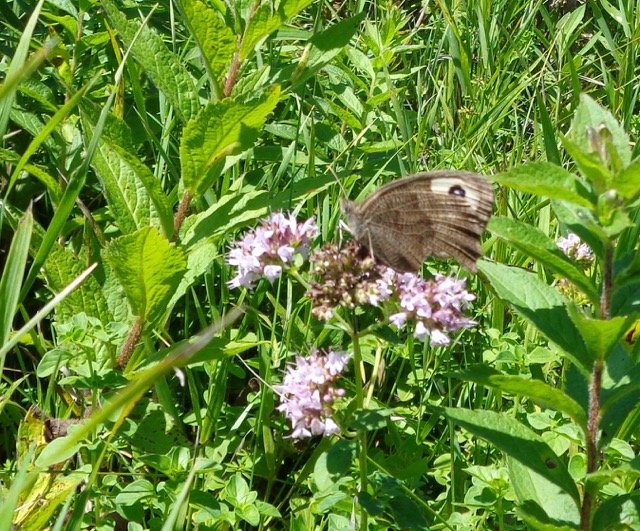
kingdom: Animalia
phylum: Arthropoda
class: Insecta
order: Lepidoptera
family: Nymphalidae
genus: Cercyonis
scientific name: Cercyonis pegala
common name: Common Wood-Nymph
